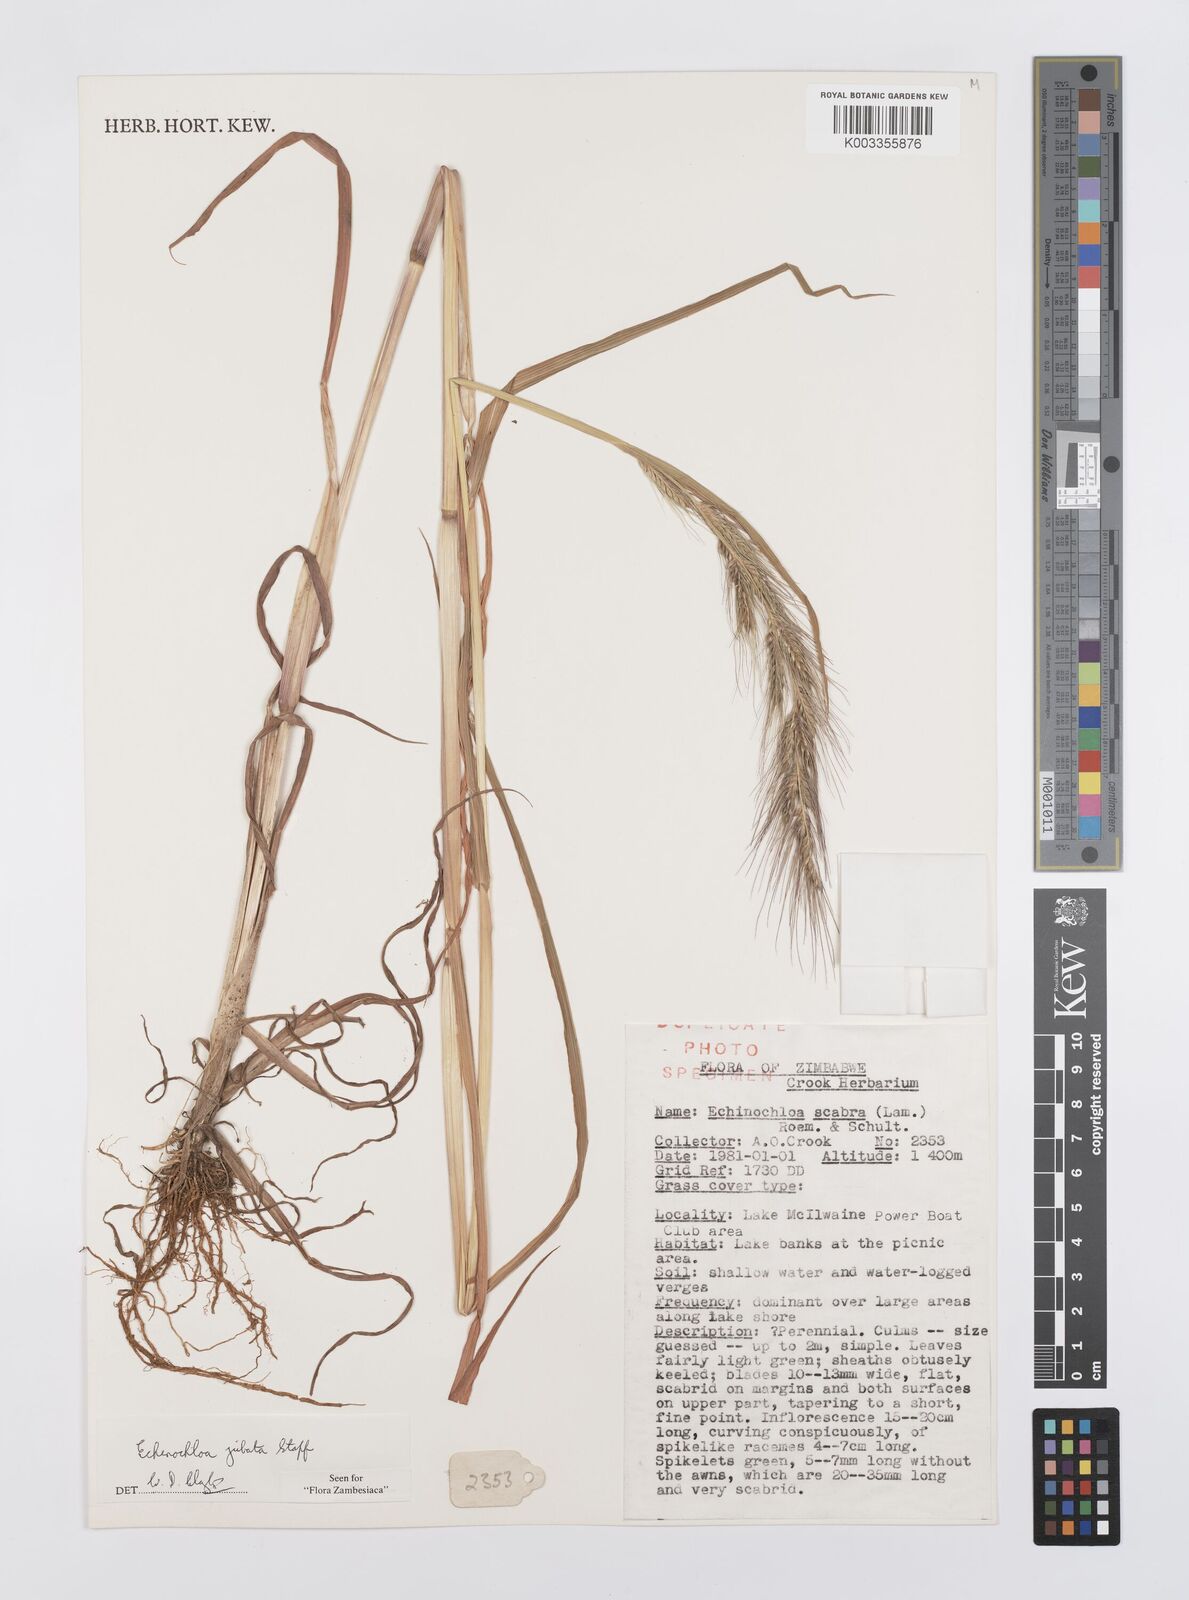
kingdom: Plantae
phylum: Tracheophyta
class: Liliopsida
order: Poales
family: Poaceae
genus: Echinochloa
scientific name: Echinochloa jubata
